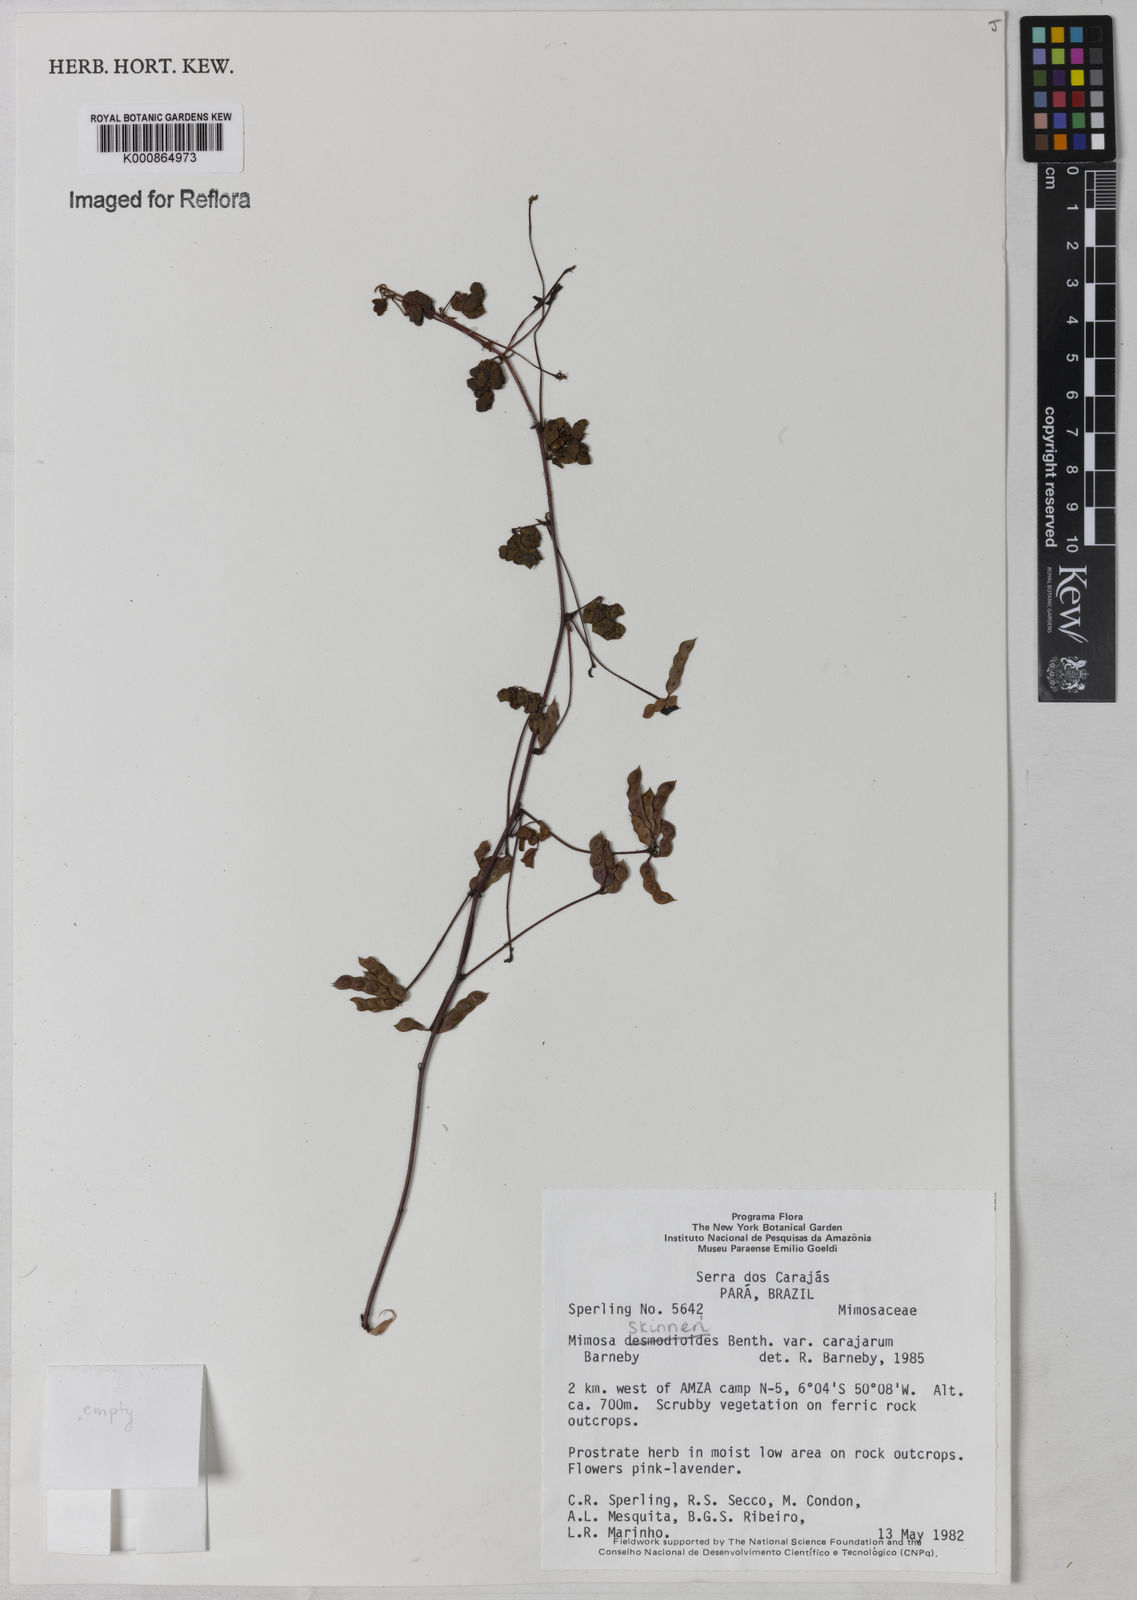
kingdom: Plantae
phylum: Tracheophyta
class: Magnoliopsida
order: Fabales
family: Fabaceae
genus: Mimosa
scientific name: Mimosa skinneri
